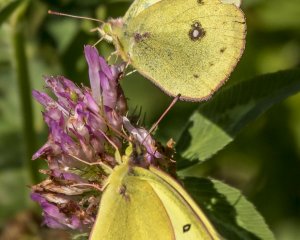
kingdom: Animalia
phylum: Arthropoda
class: Insecta
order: Lepidoptera
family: Pieridae
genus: Colias
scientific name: Colias eurytheme
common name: Orange Sulphur
